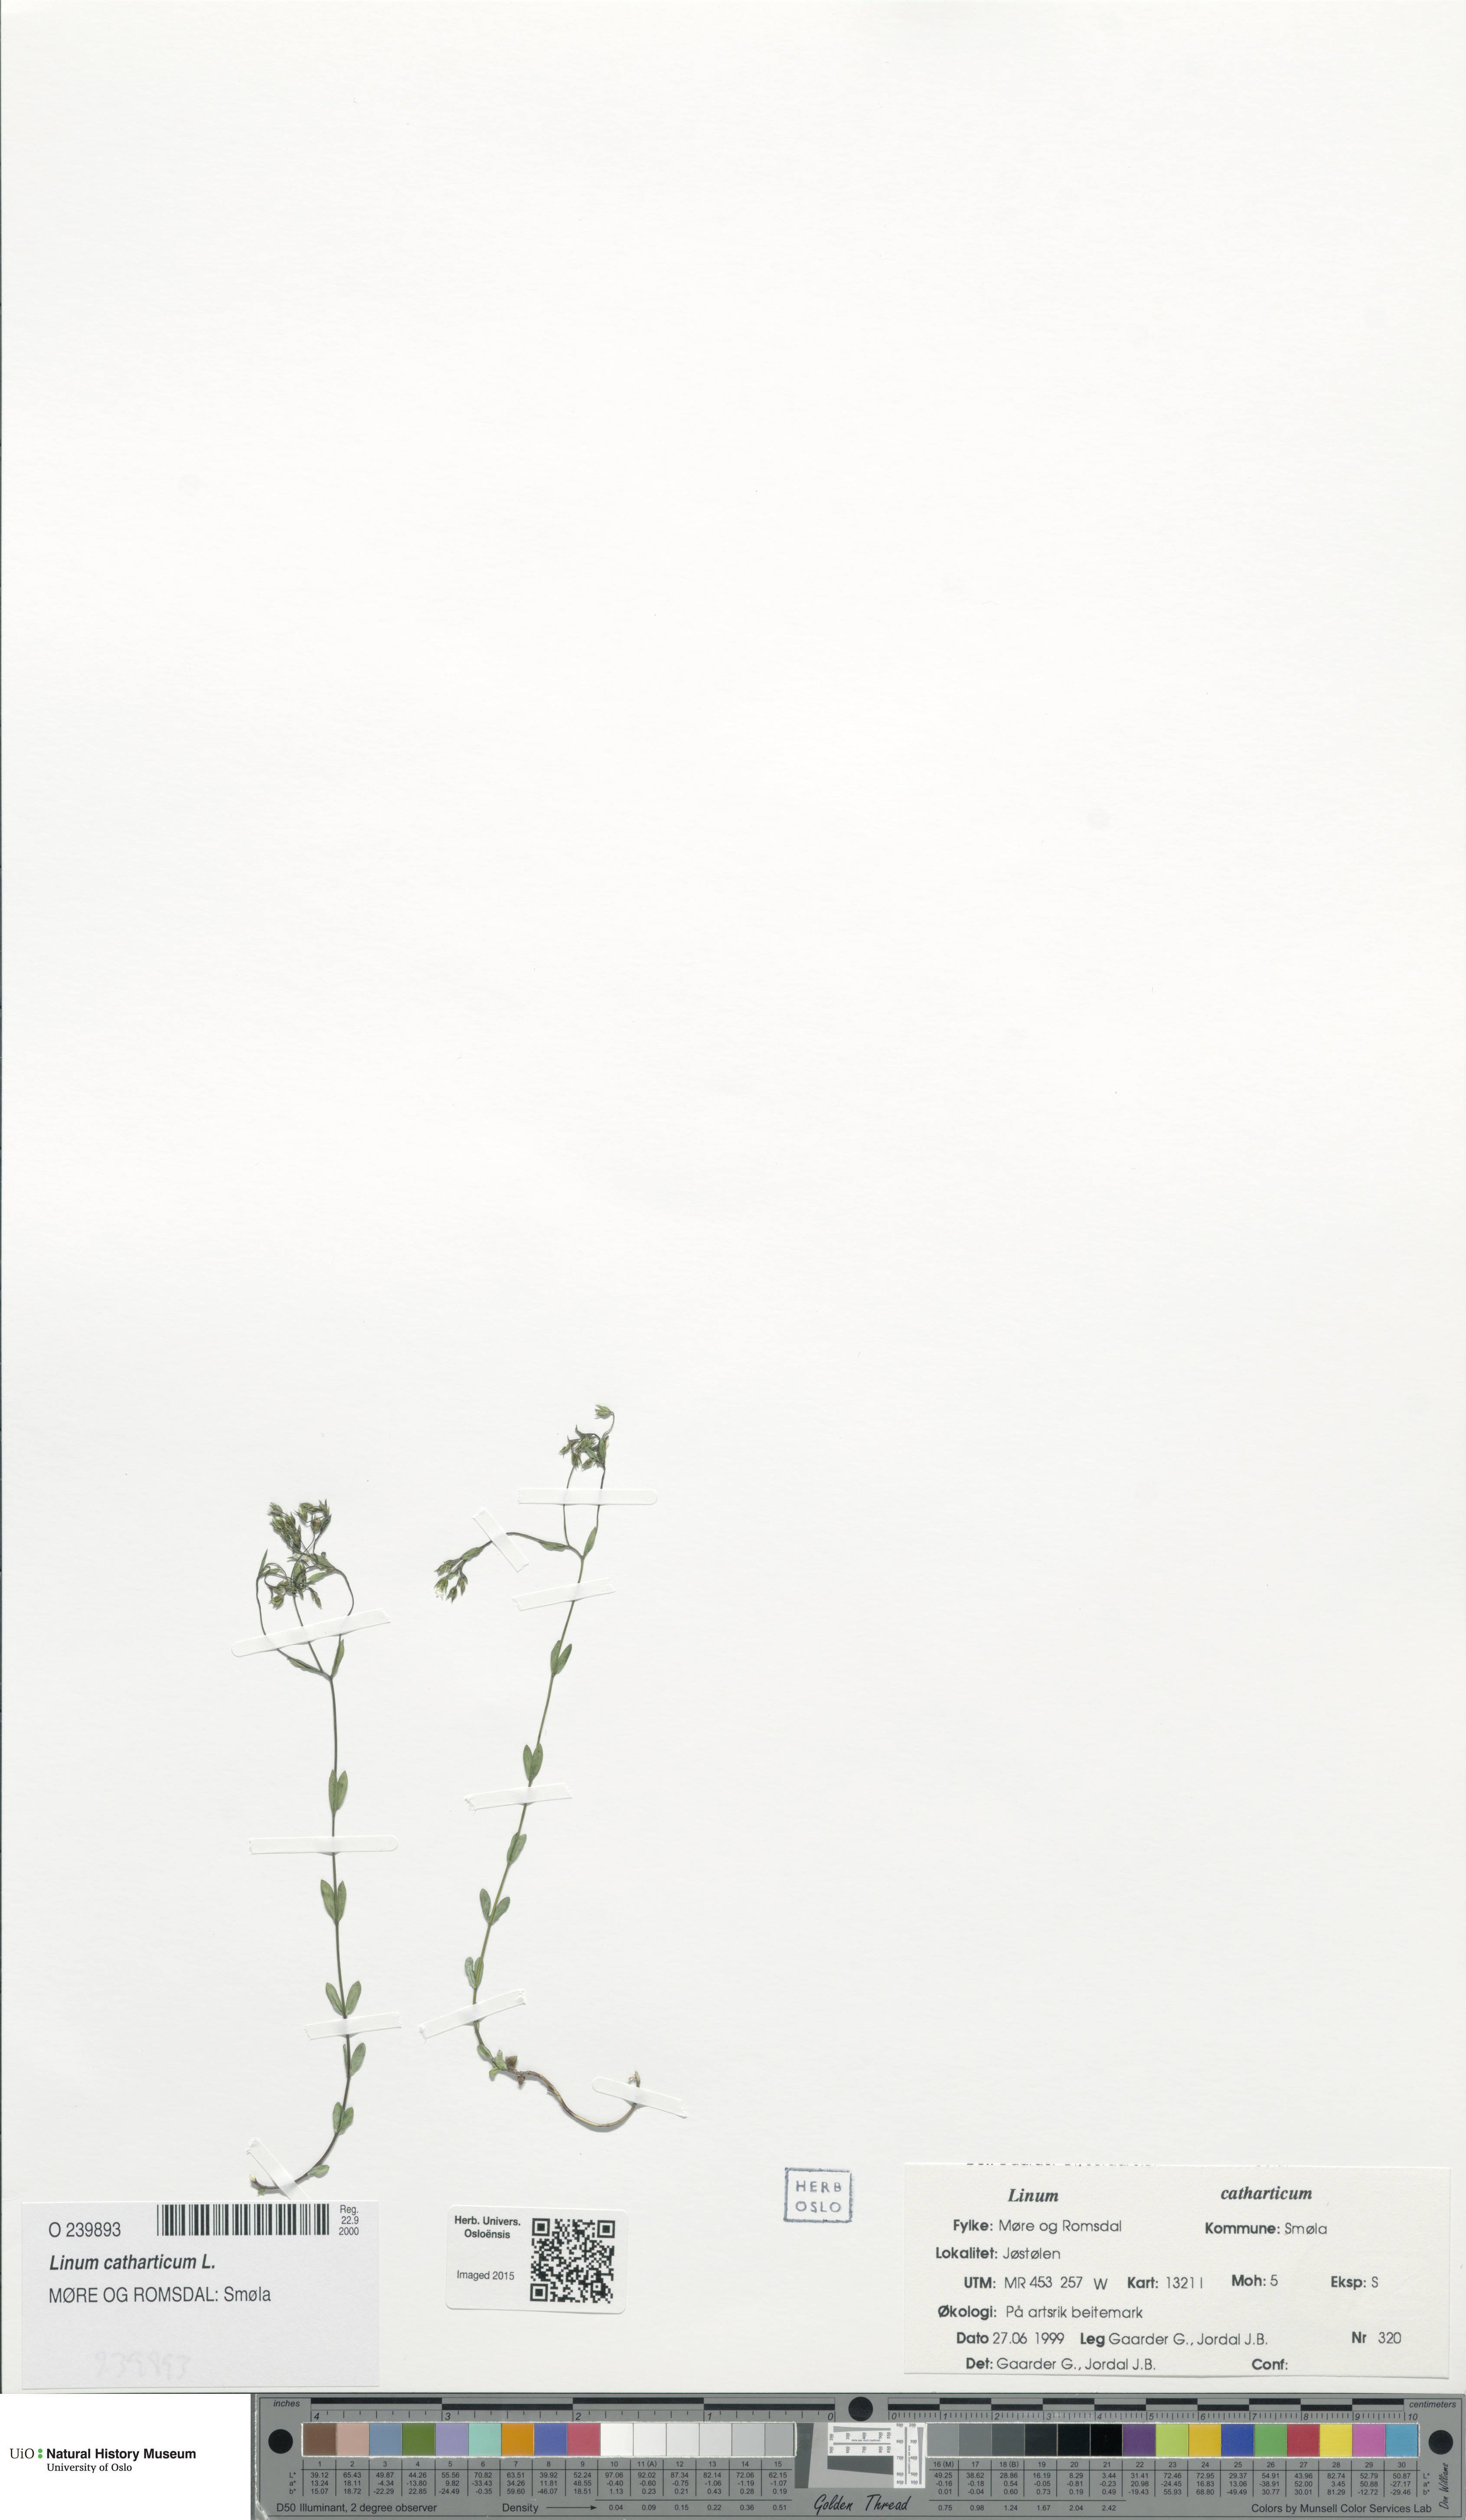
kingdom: Plantae
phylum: Tracheophyta
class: Magnoliopsida
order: Malpighiales
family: Linaceae
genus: Linum
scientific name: Linum catharticum
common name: Fairy flax
